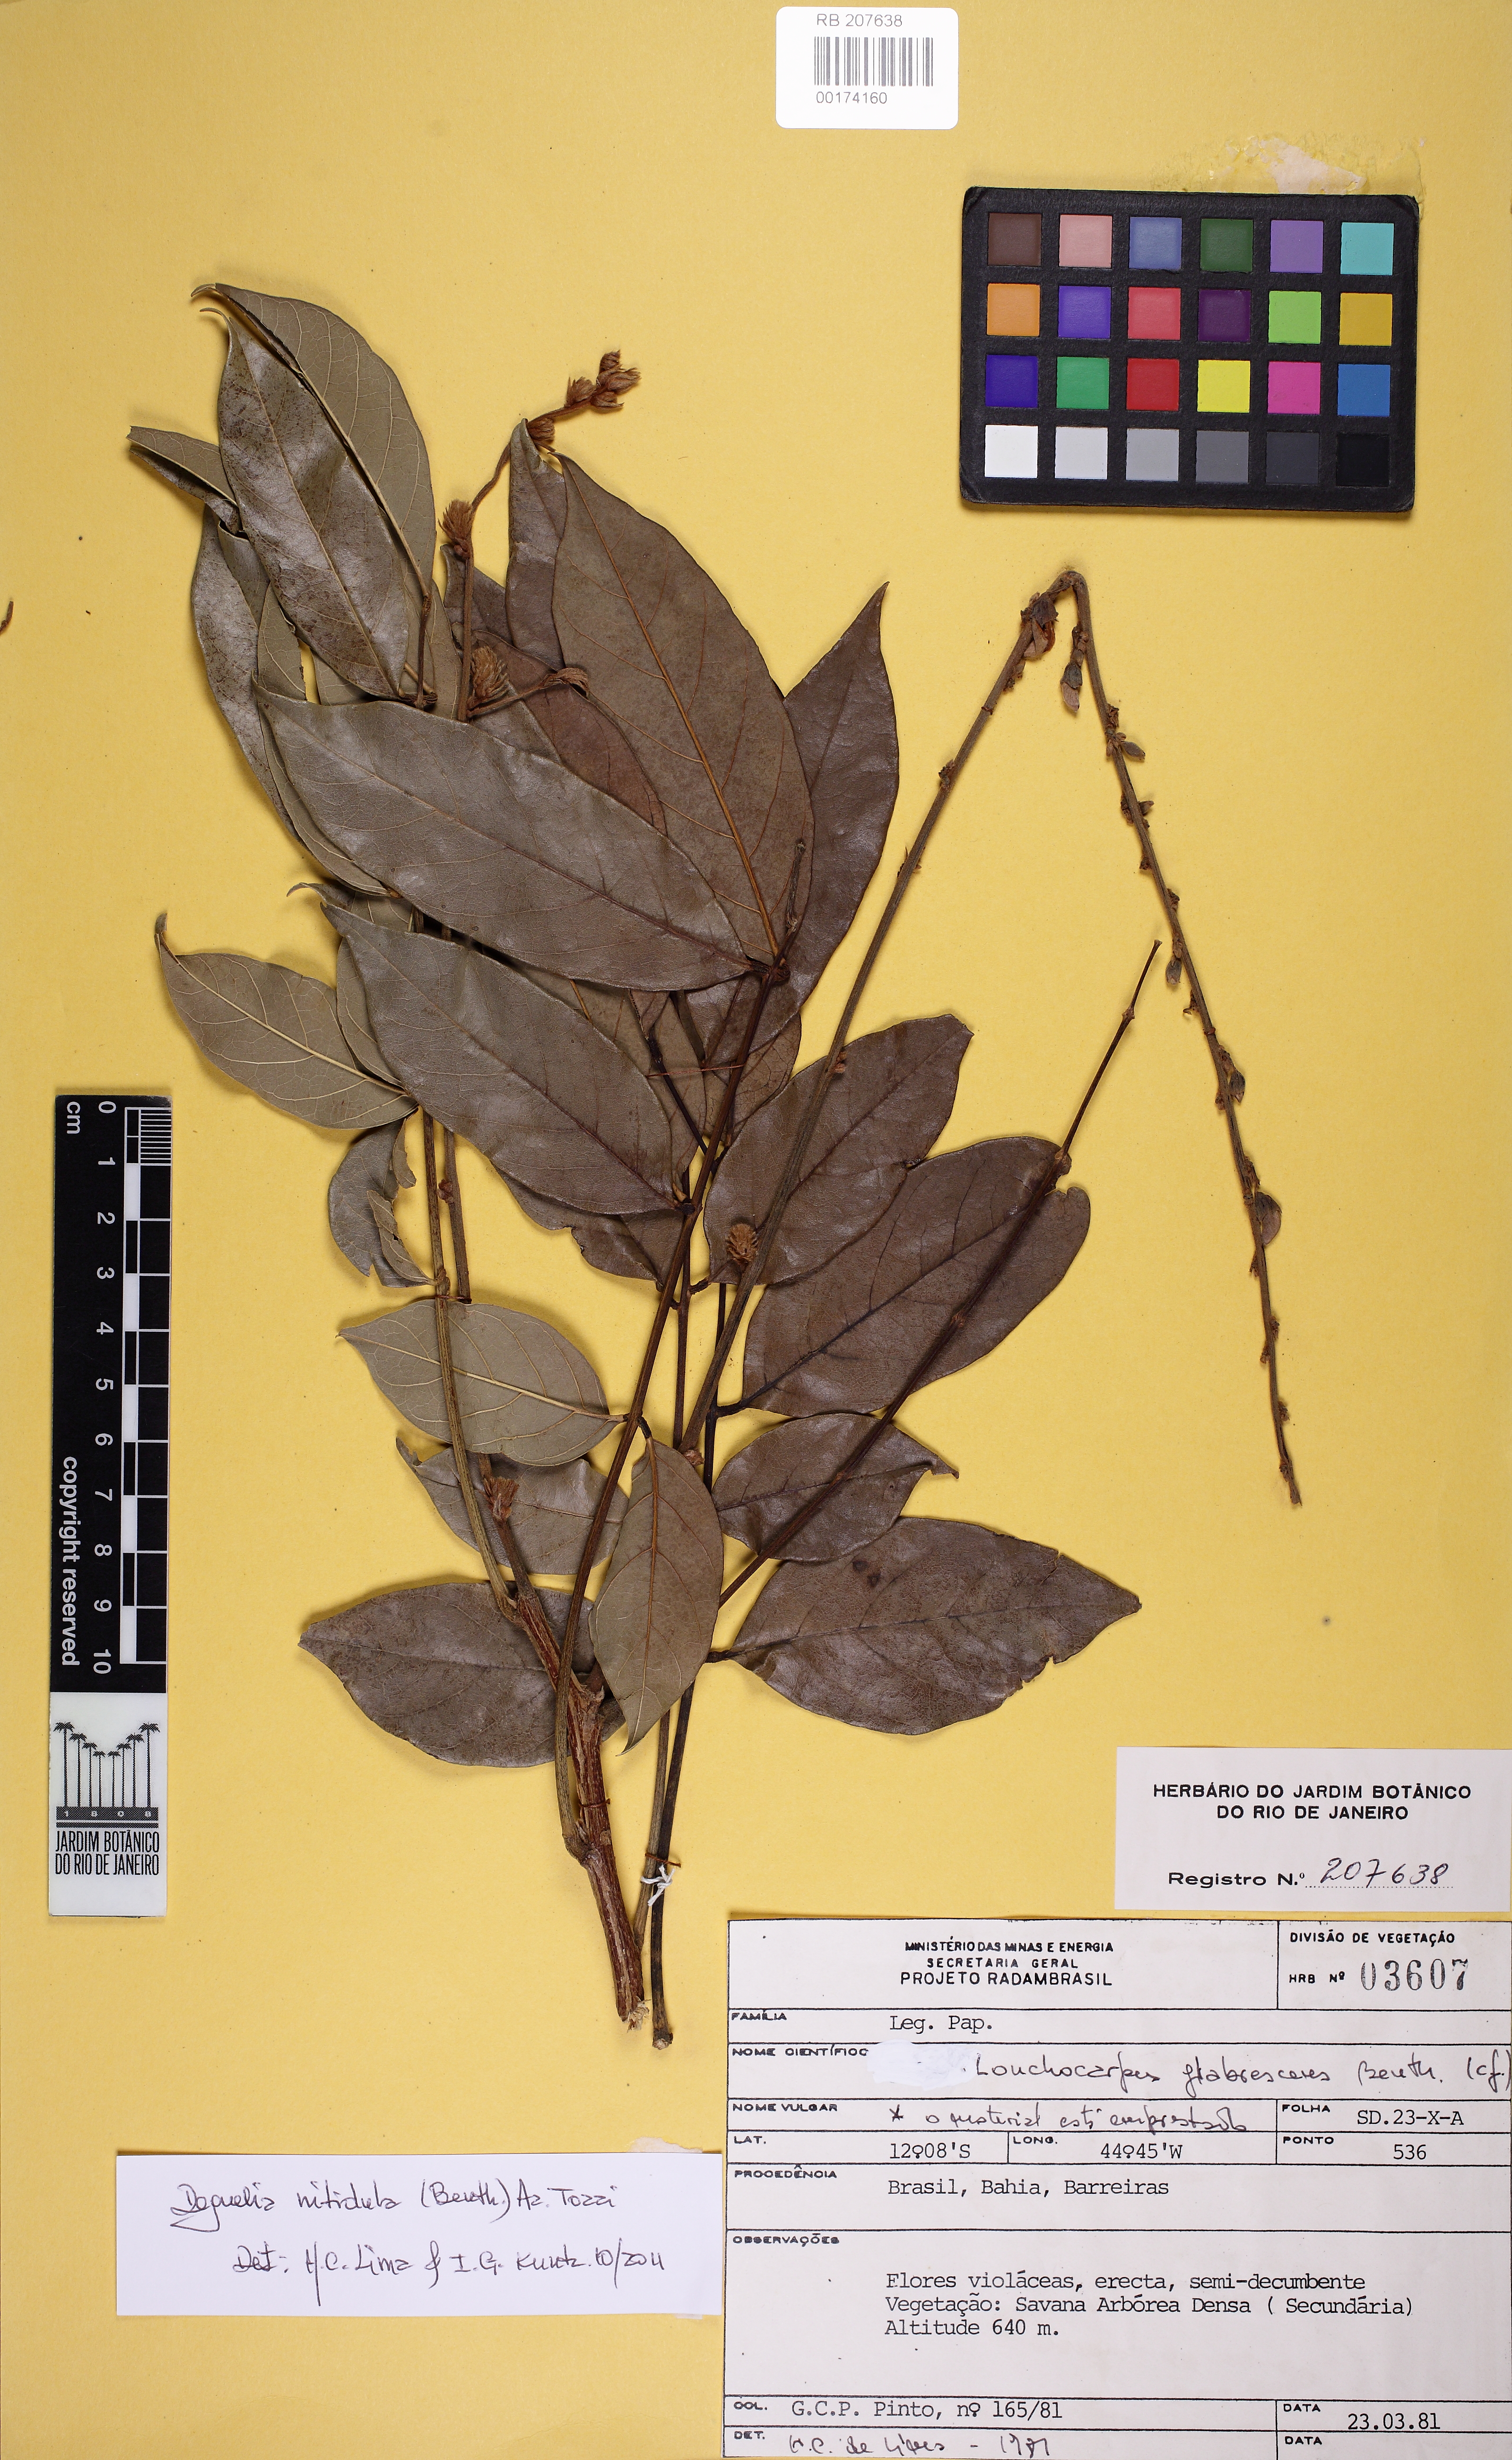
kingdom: Plantae
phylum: Tracheophyta
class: Magnoliopsida
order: Fabales
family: Fabaceae
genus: Deguelia
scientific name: Deguelia densiflora
